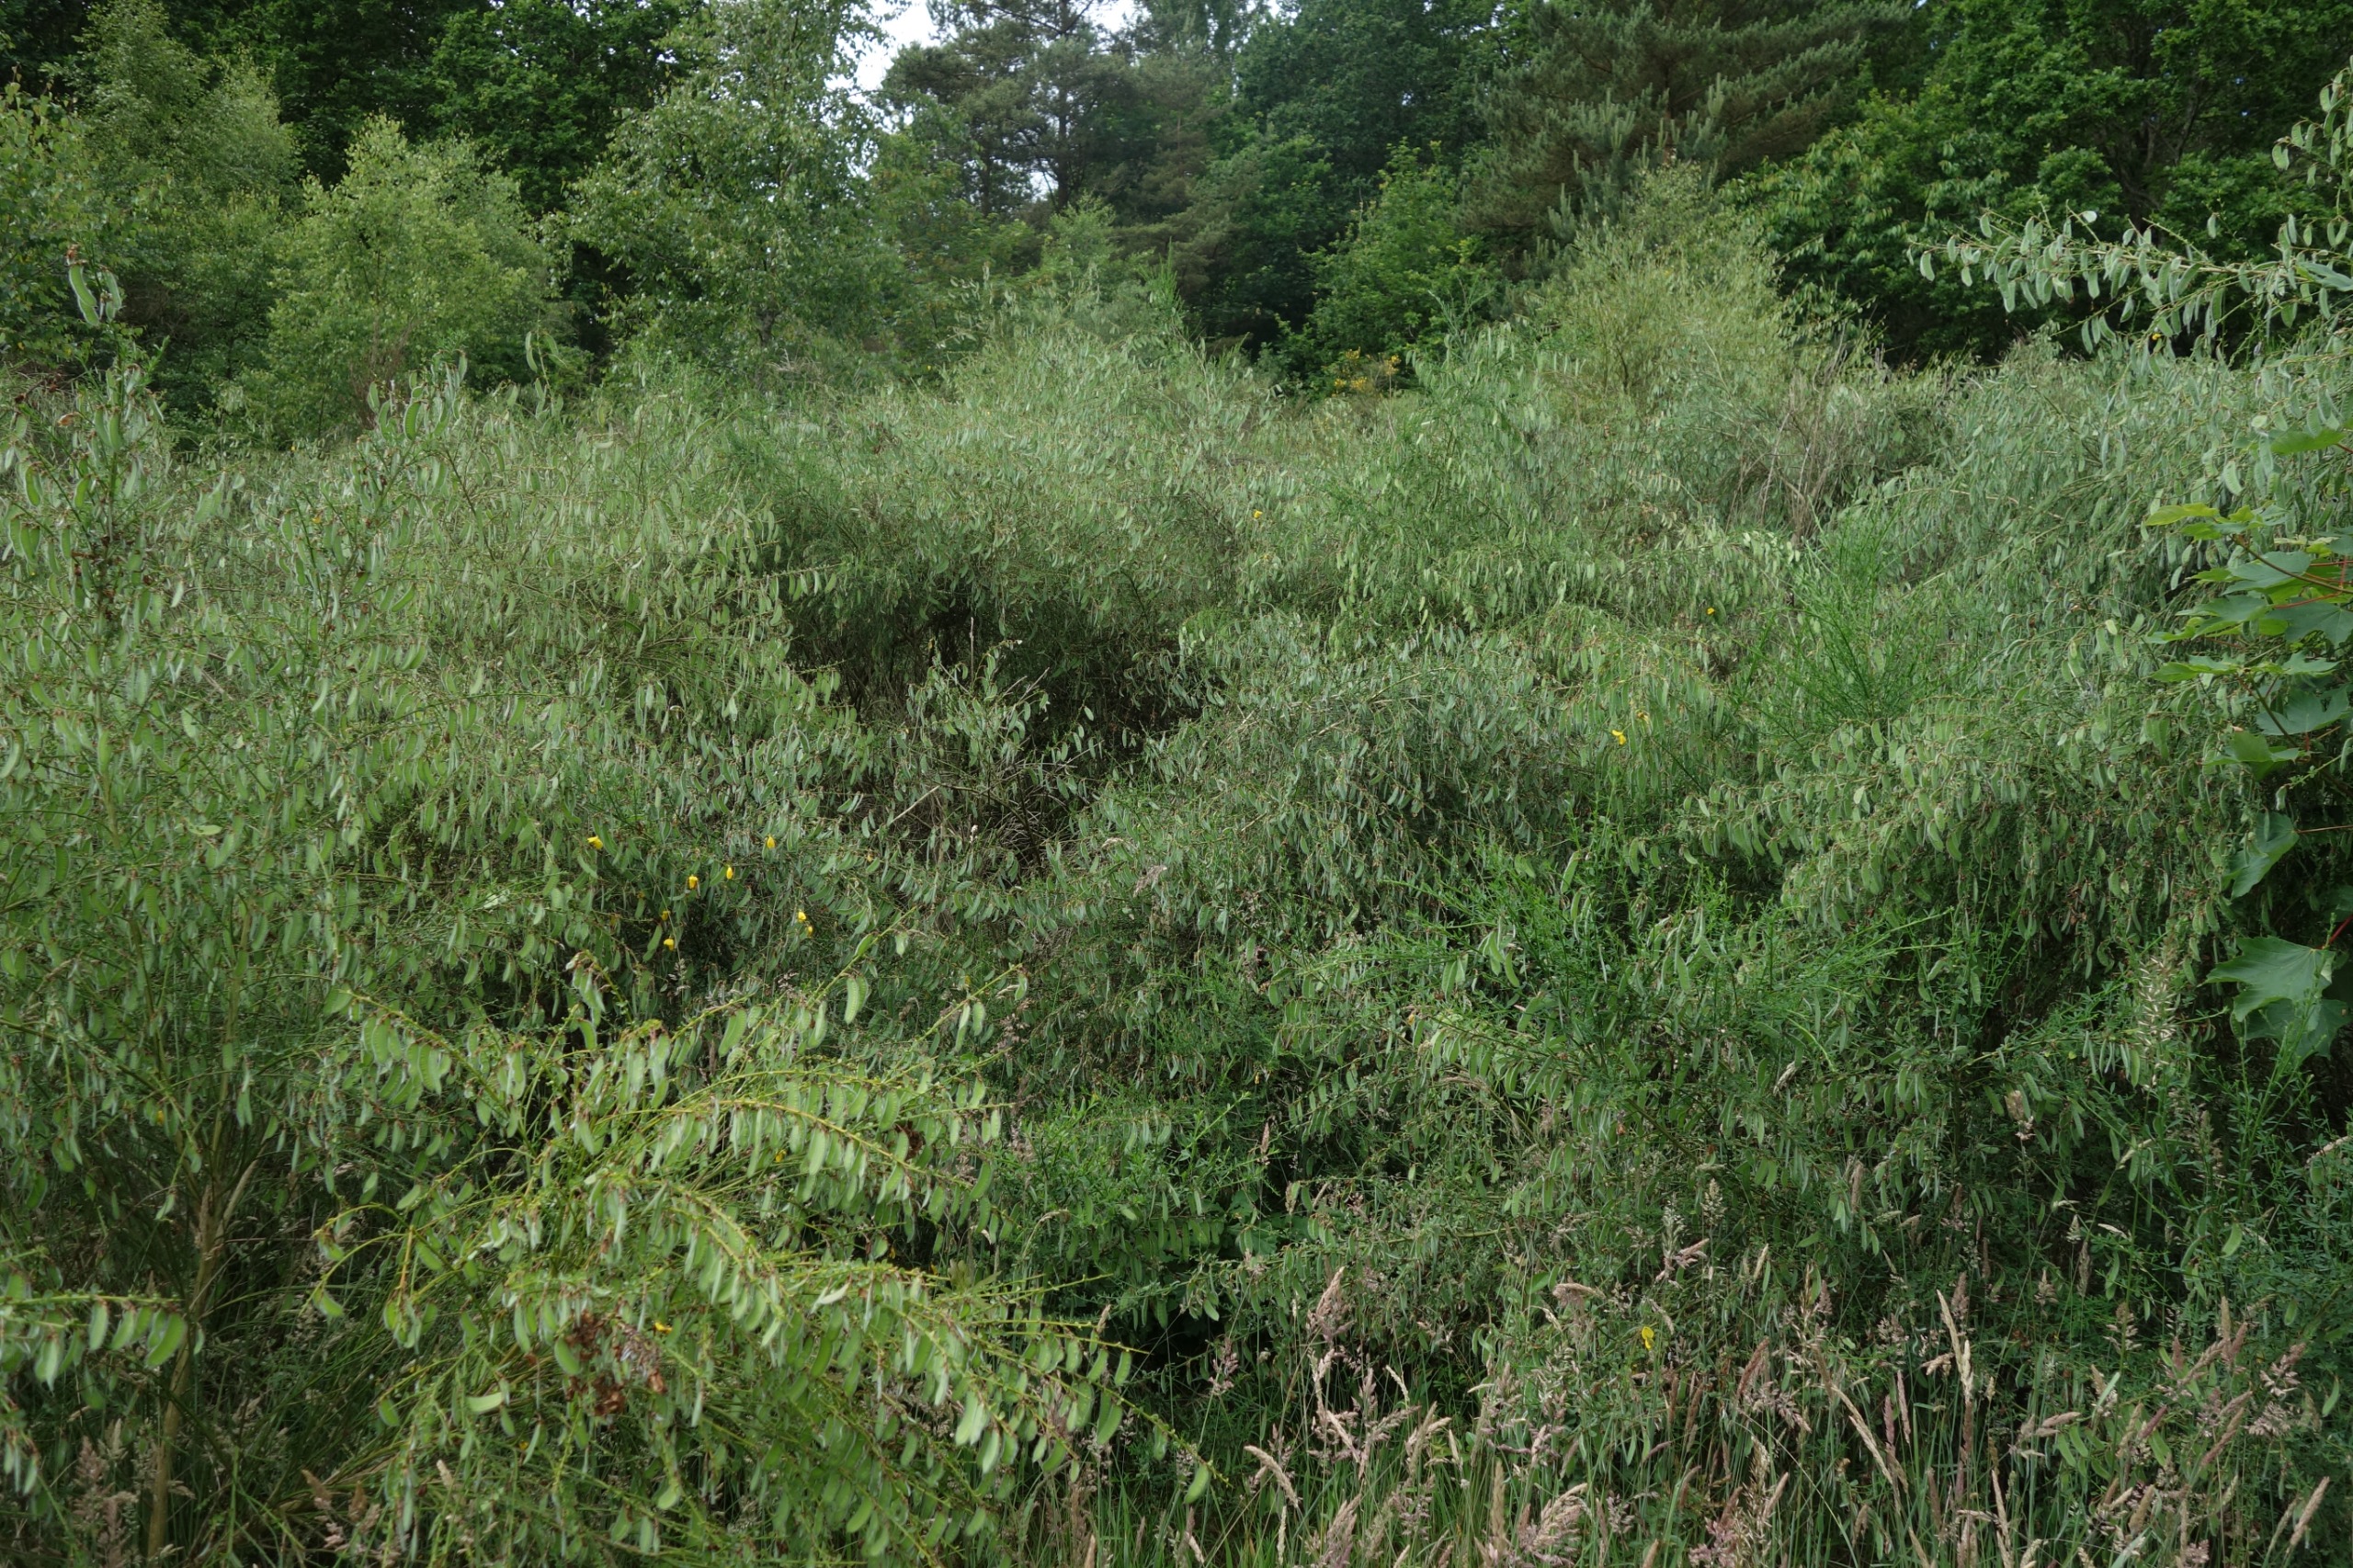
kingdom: Plantae
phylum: Tracheophyta
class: Magnoliopsida
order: Fabales
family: Fabaceae
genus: Cytisus
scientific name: Cytisus scoparius
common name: Almindelig gyvel
